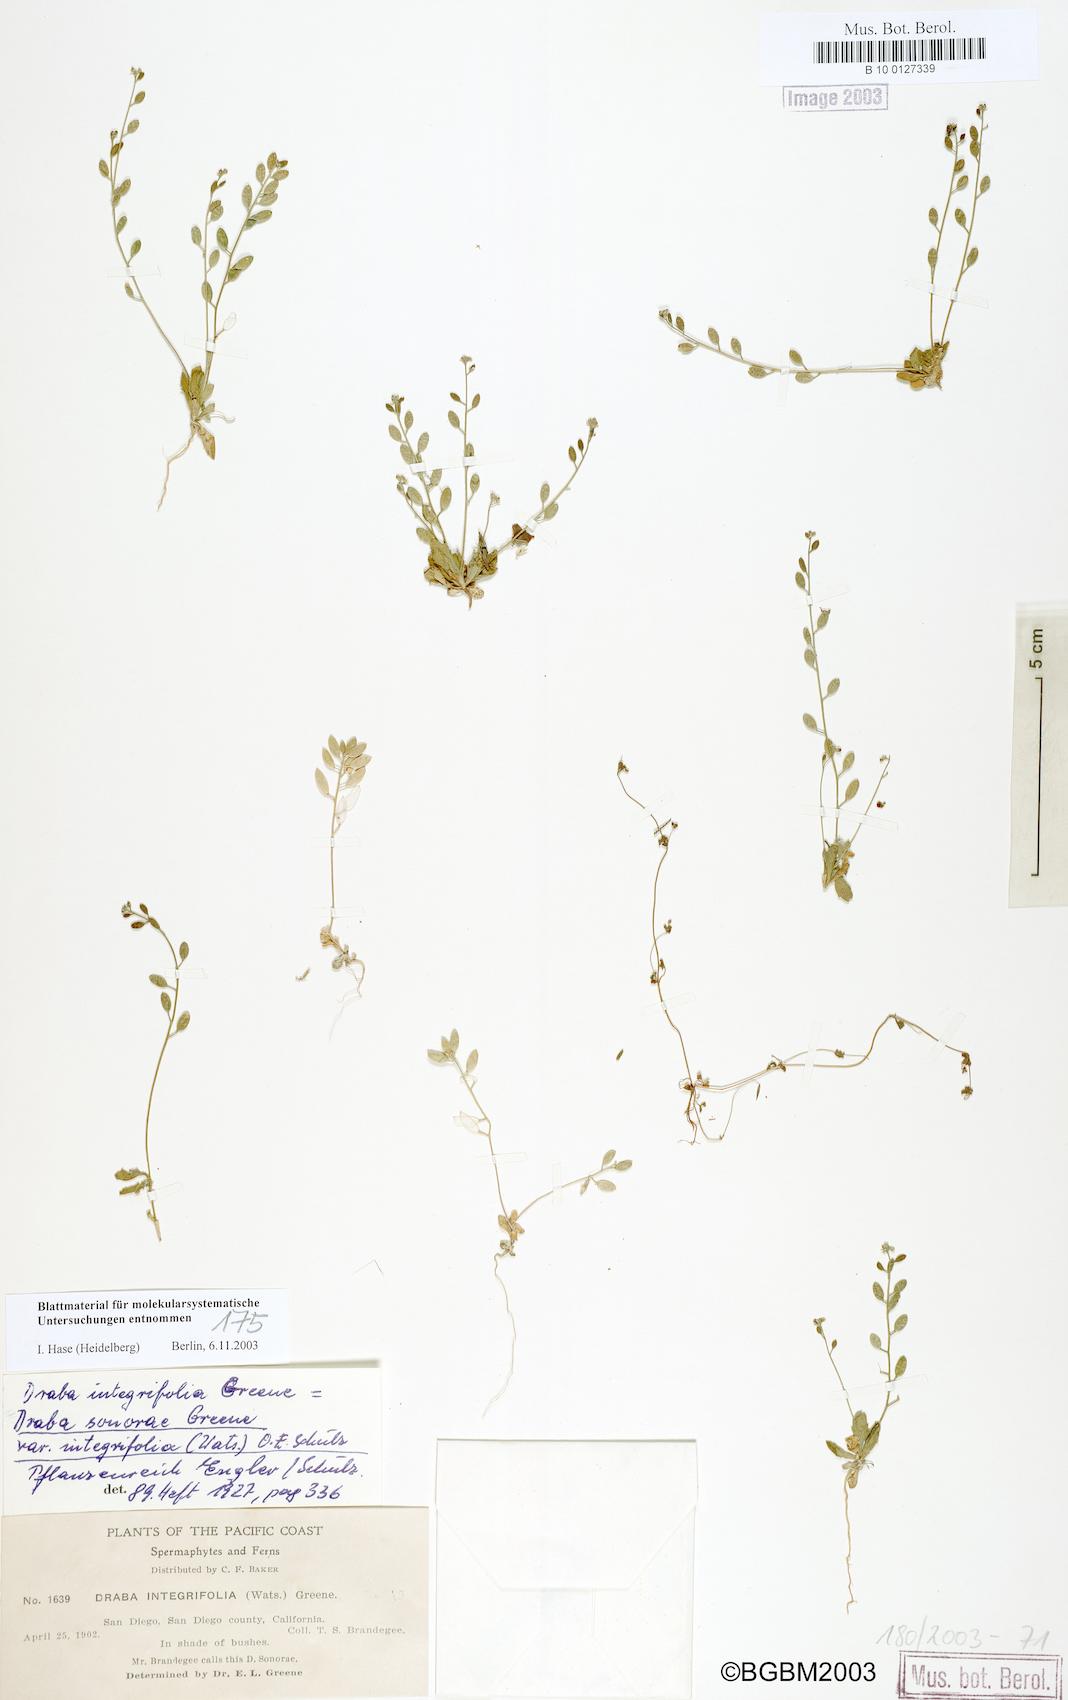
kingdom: Plantae
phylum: Tracheophyta
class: Magnoliopsida
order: Brassicales
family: Brassicaceae
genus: Tomostima
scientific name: Tomostima cuneifolia
